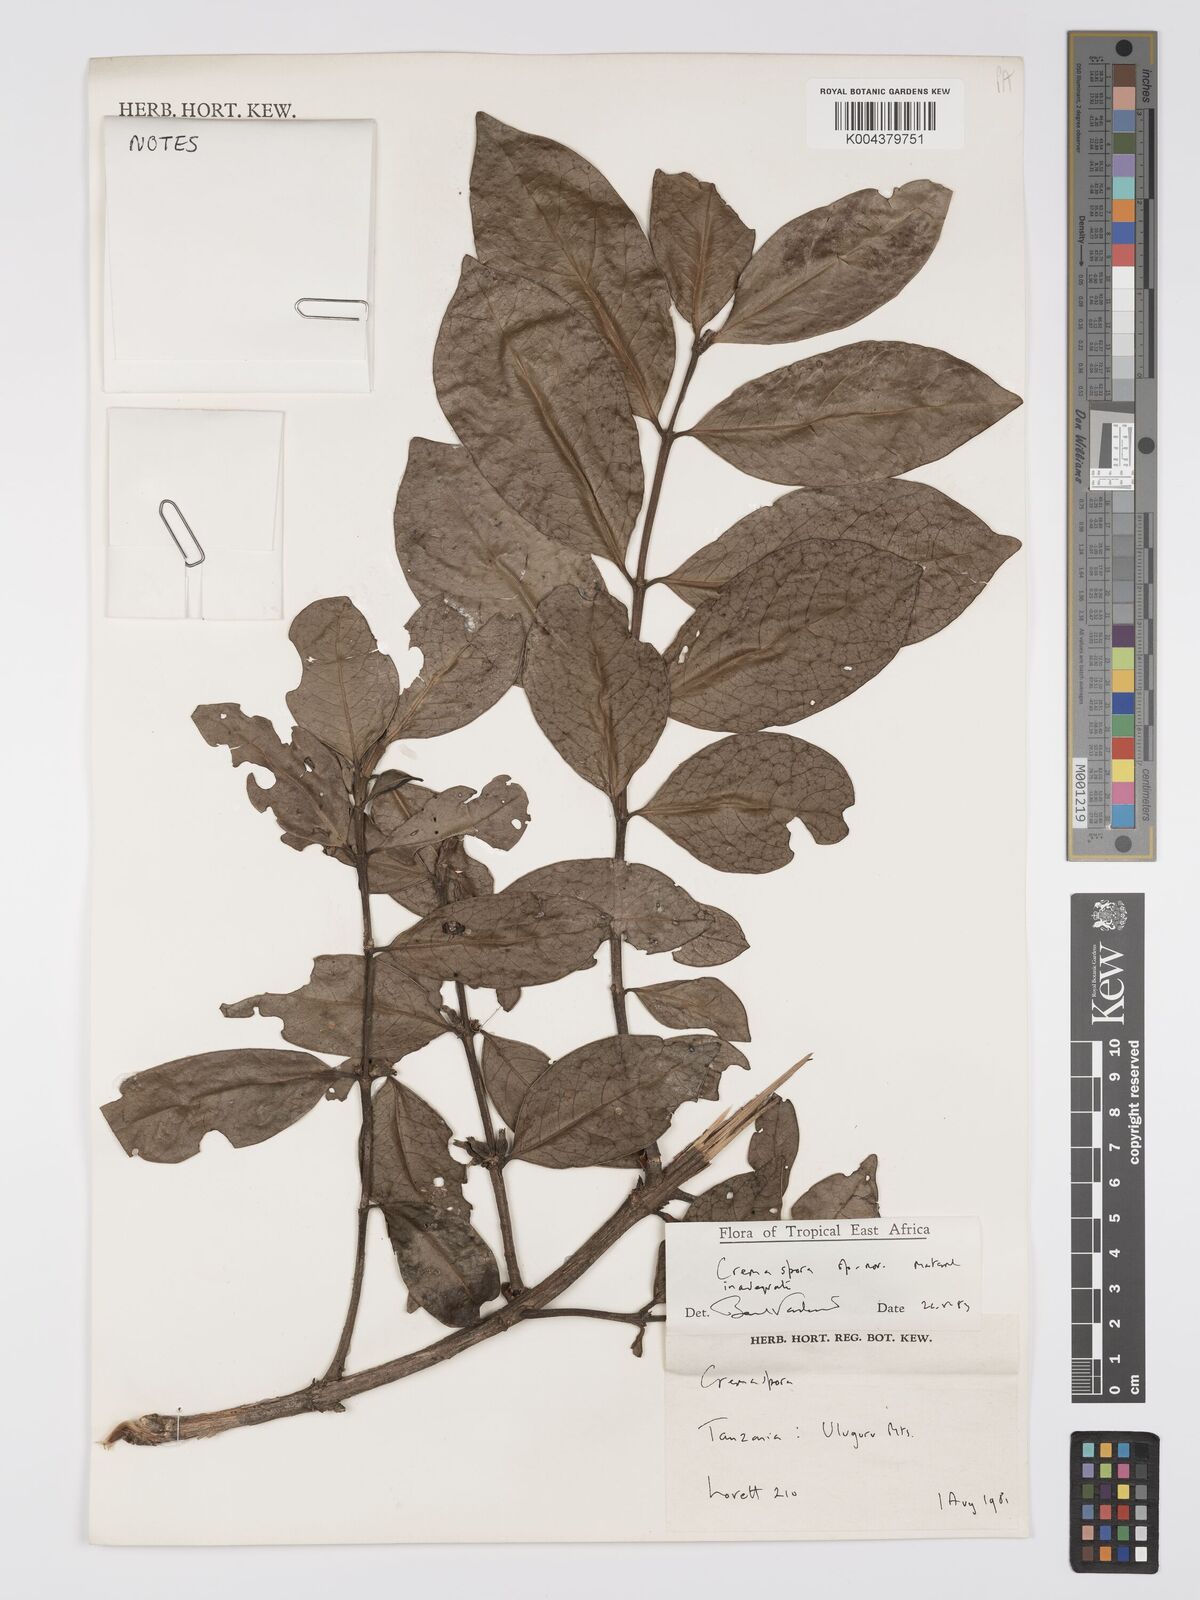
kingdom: Plantae
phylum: Tracheophyta
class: Magnoliopsida
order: Gentianales
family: Rubiaceae
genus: Cremaspora
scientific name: Cremaspora
